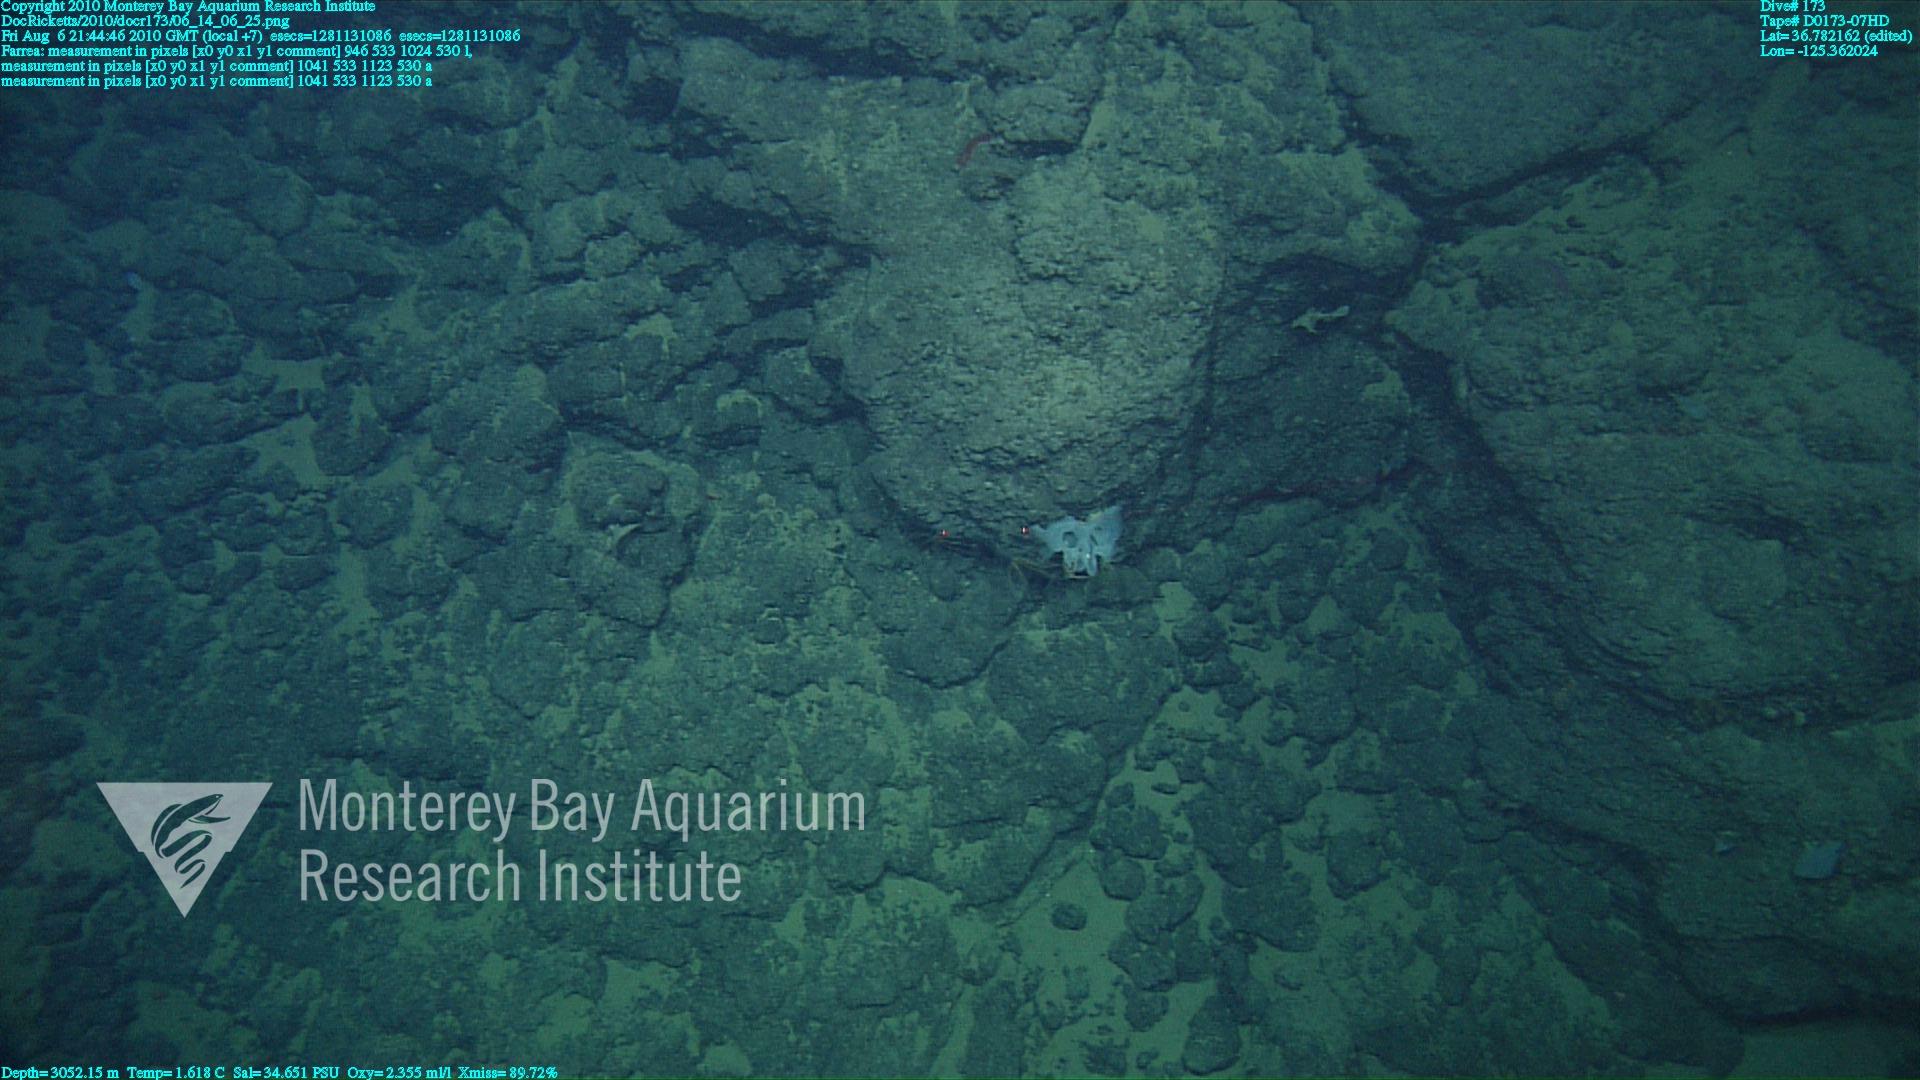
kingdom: Animalia
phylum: Porifera
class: Hexactinellida
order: Sceptrulophora
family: Farreidae
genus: Farrea
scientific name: Farrea
